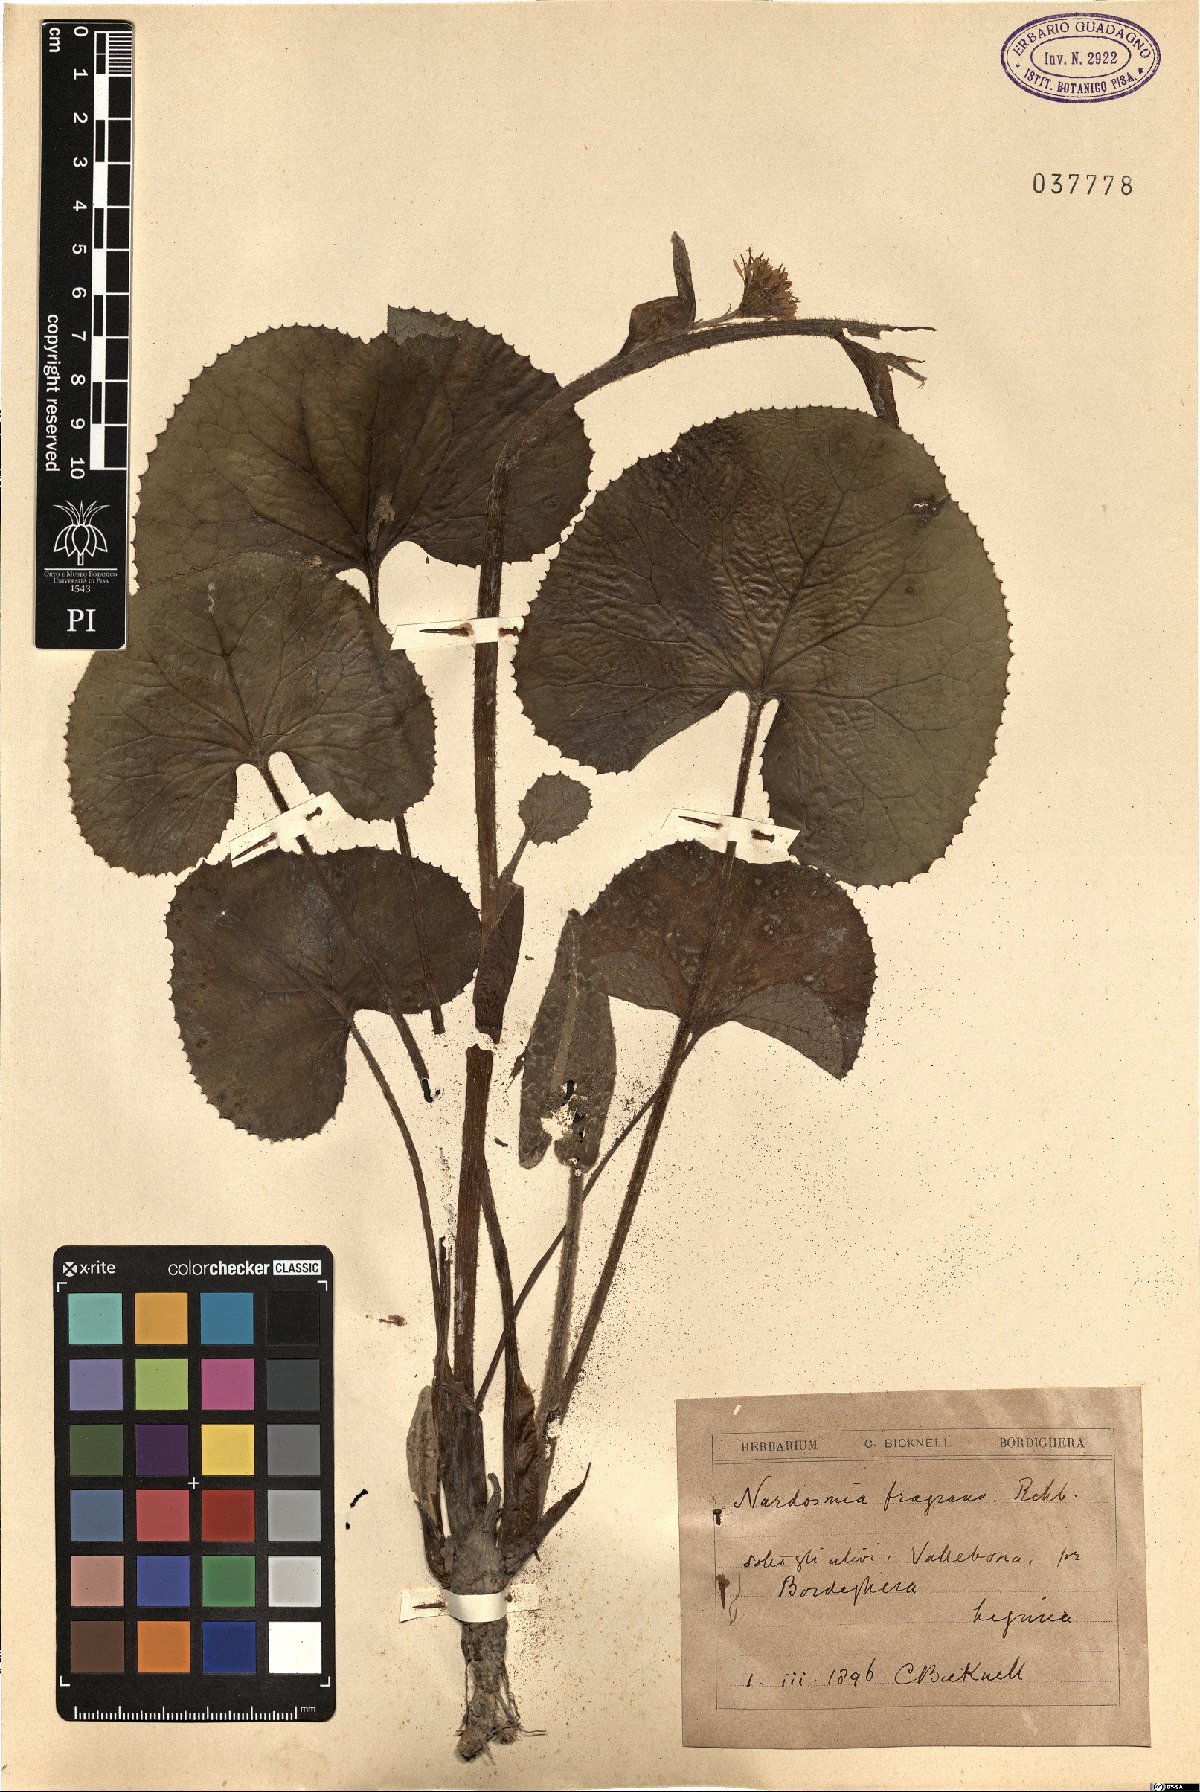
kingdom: Plantae
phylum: Tracheophyta
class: Magnoliopsida
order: Asterales
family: Asteraceae
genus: Petasites
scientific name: Petasites pyrenaicus
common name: Winter heliotrope
